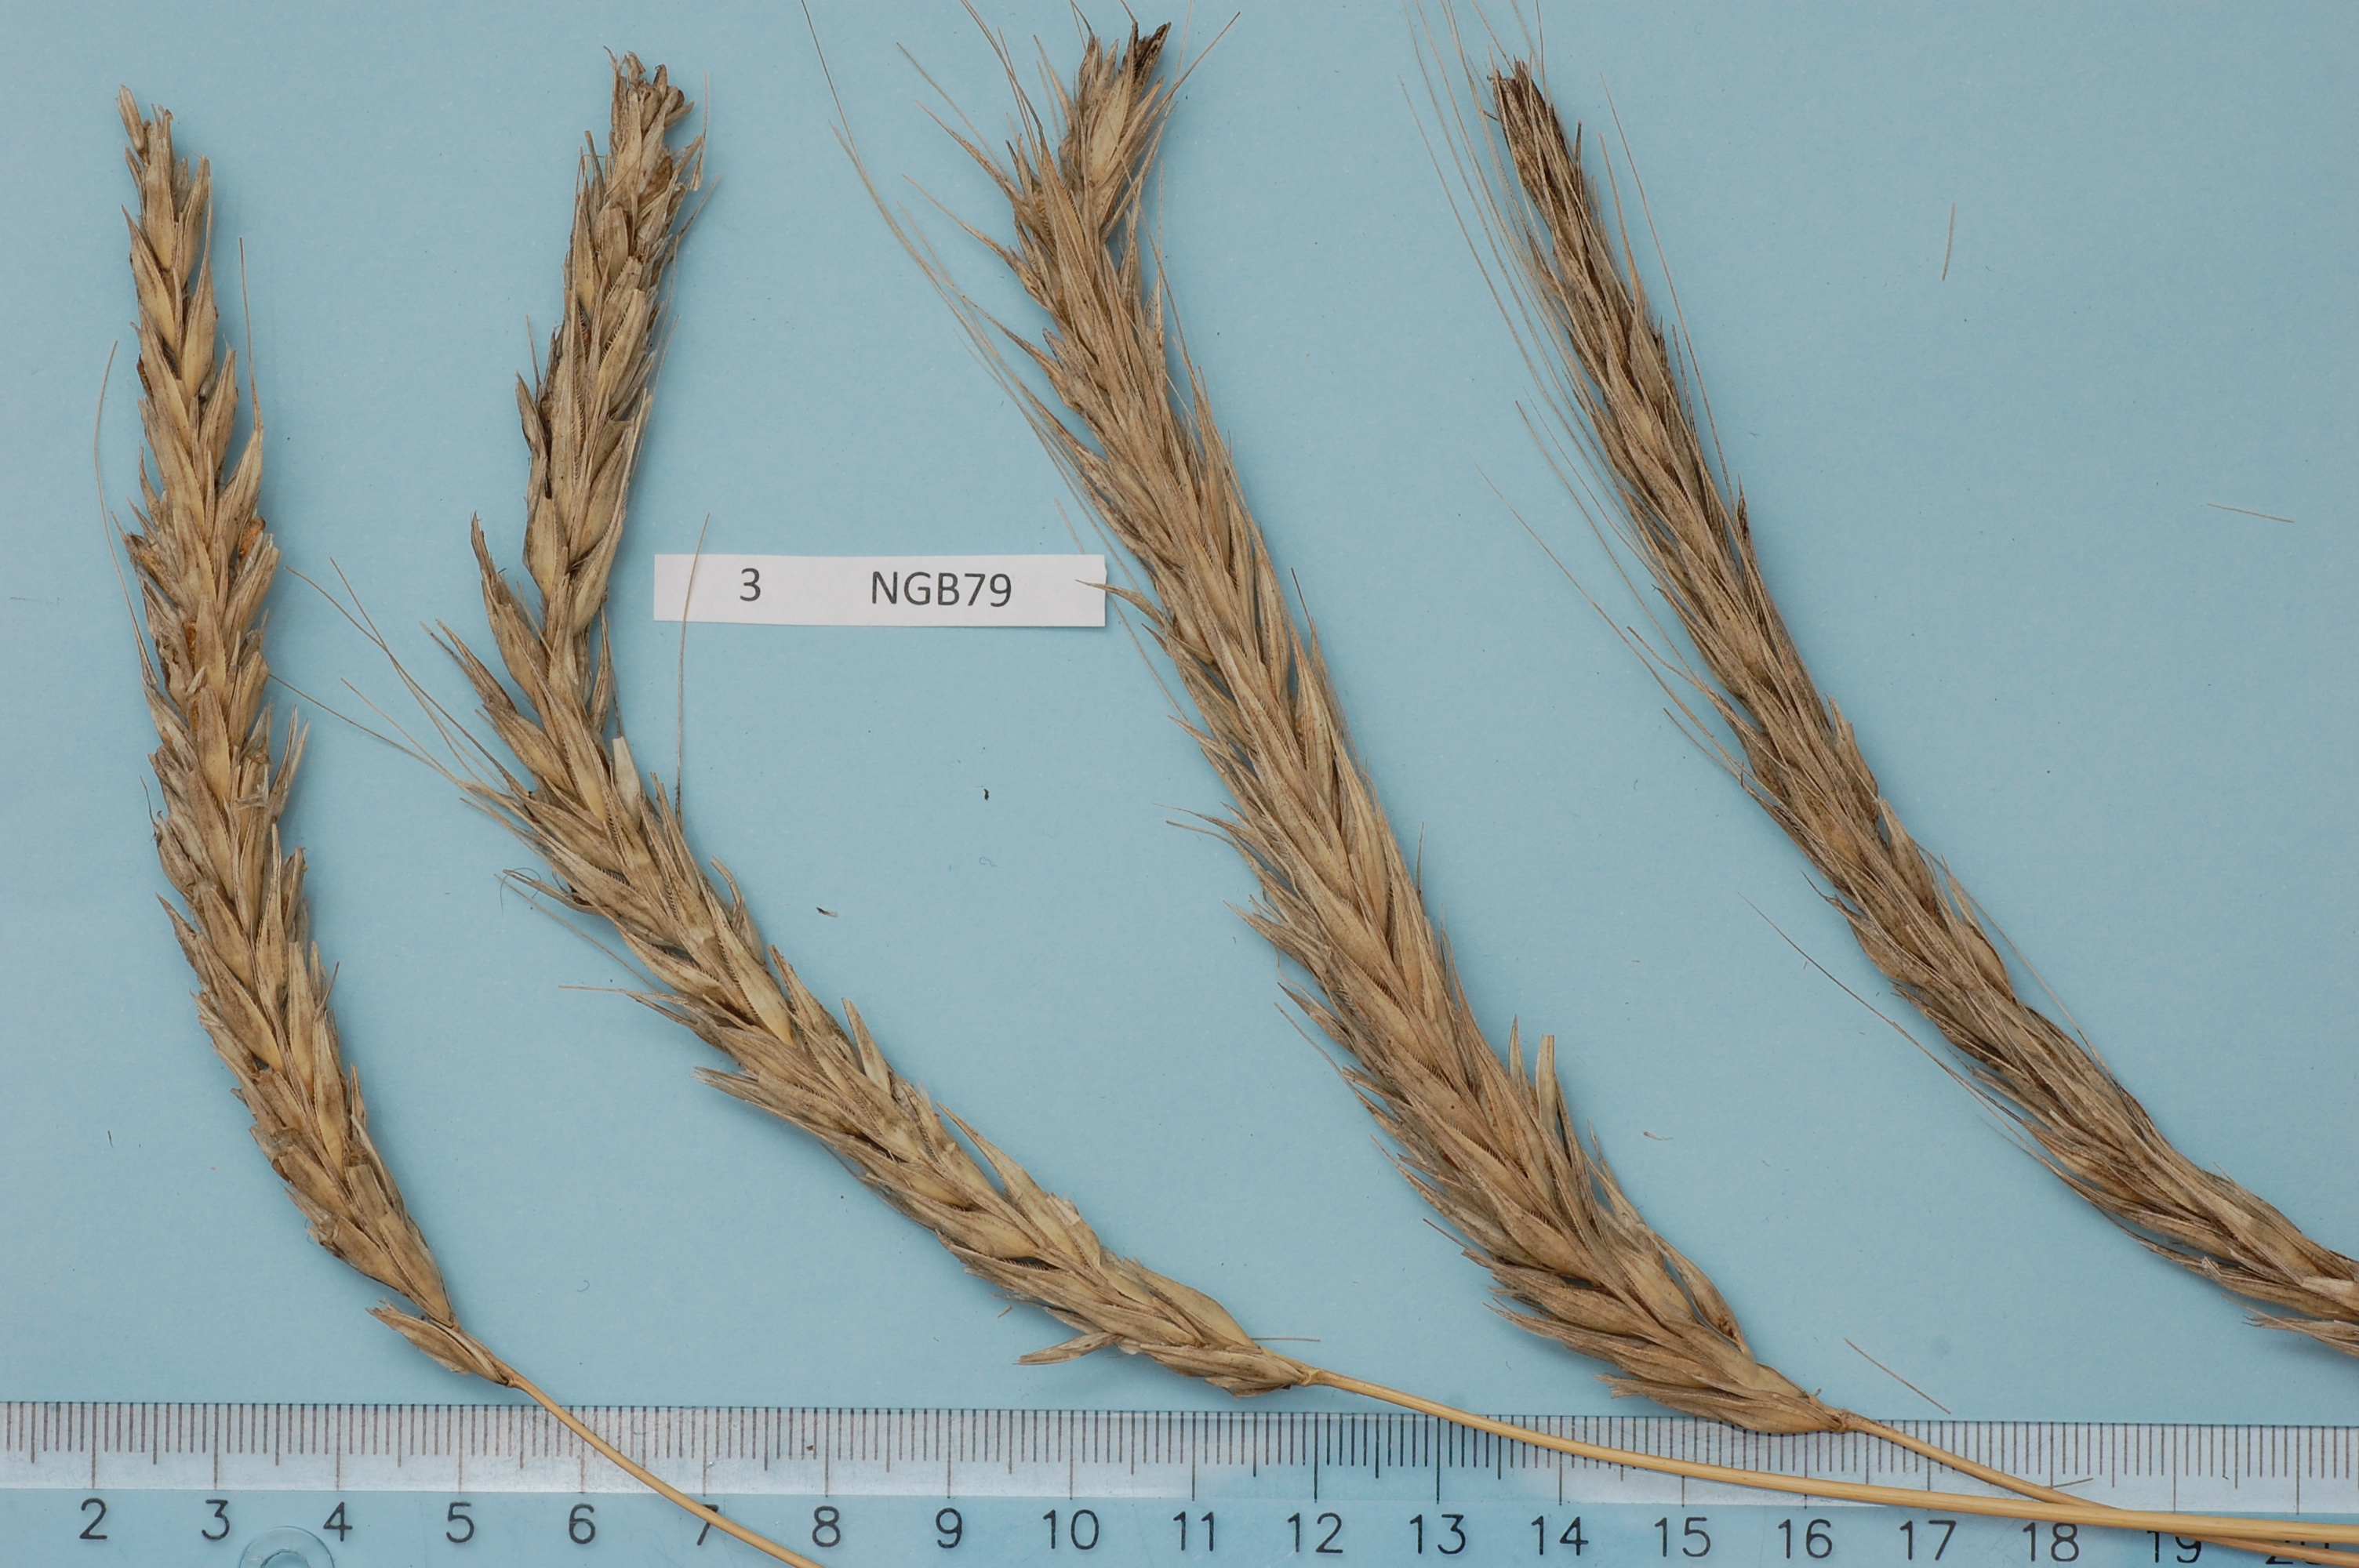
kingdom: Plantae
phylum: Tracheophyta
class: Liliopsida
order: Poales
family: Poaceae
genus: Secale
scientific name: Secale cereale
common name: Rye
